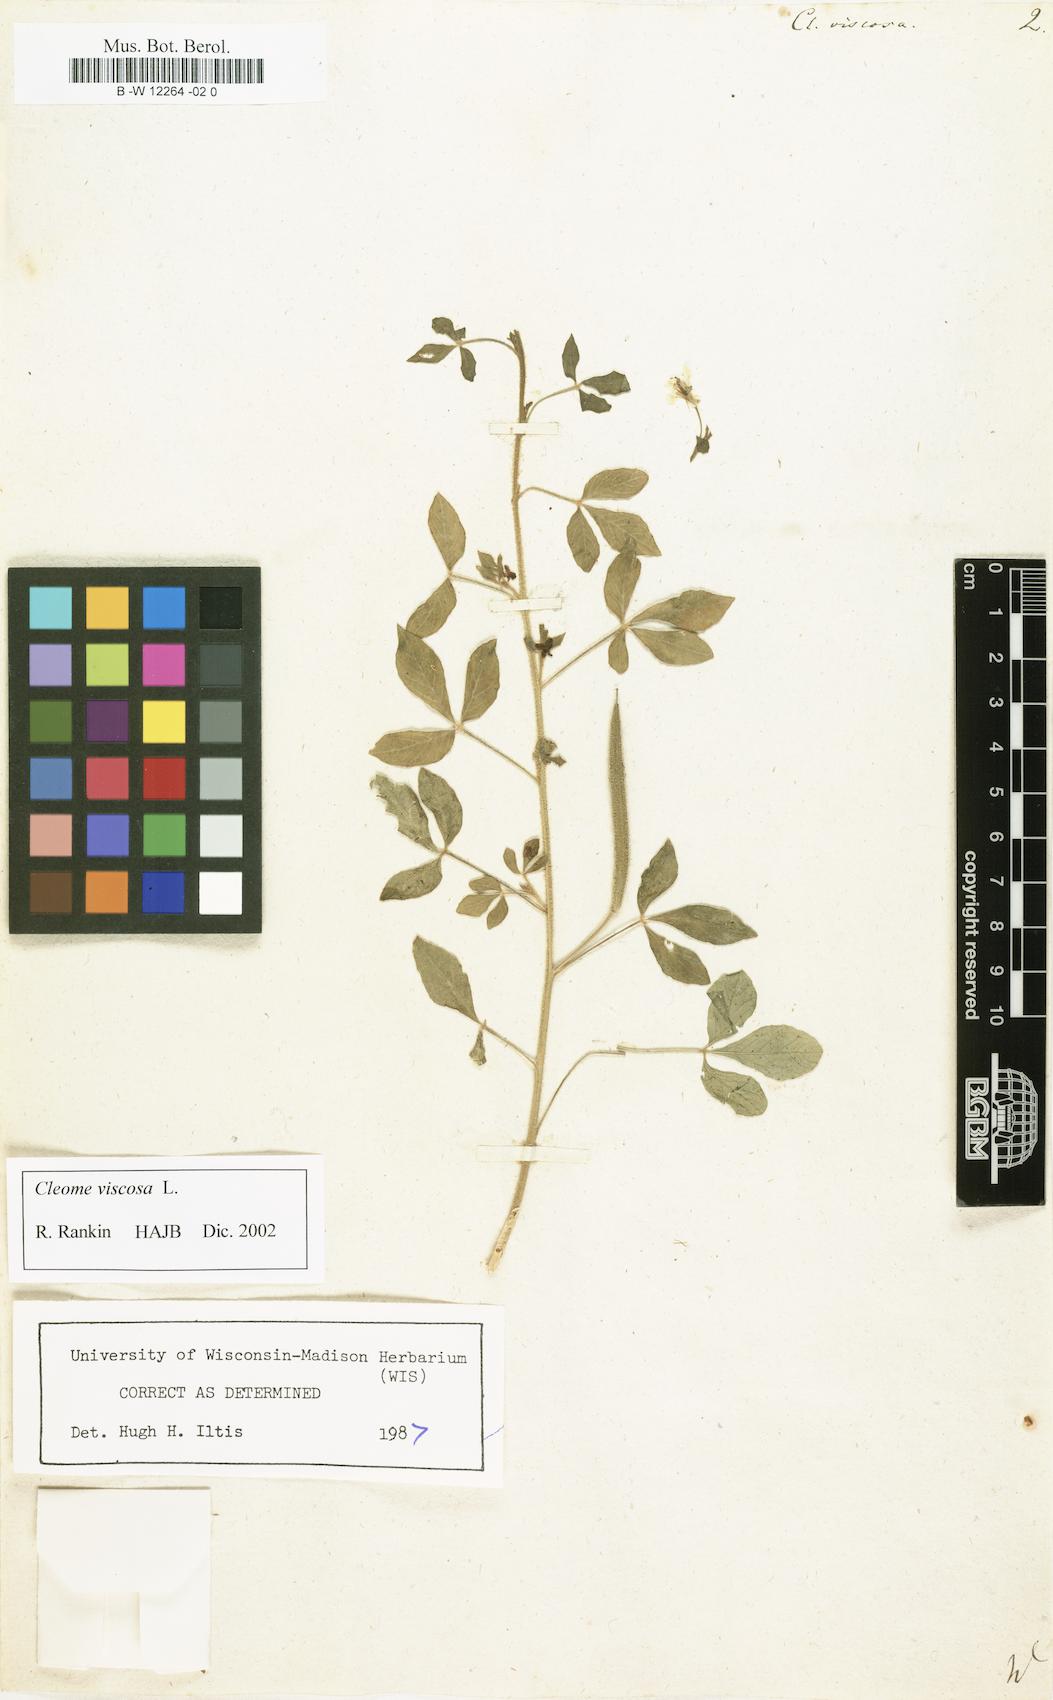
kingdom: Plantae
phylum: Tracheophyta
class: Magnoliopsida
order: Brassicales
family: Cleomaceae
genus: Arivela
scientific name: Arivela viscosa
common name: Asian spiderflower
